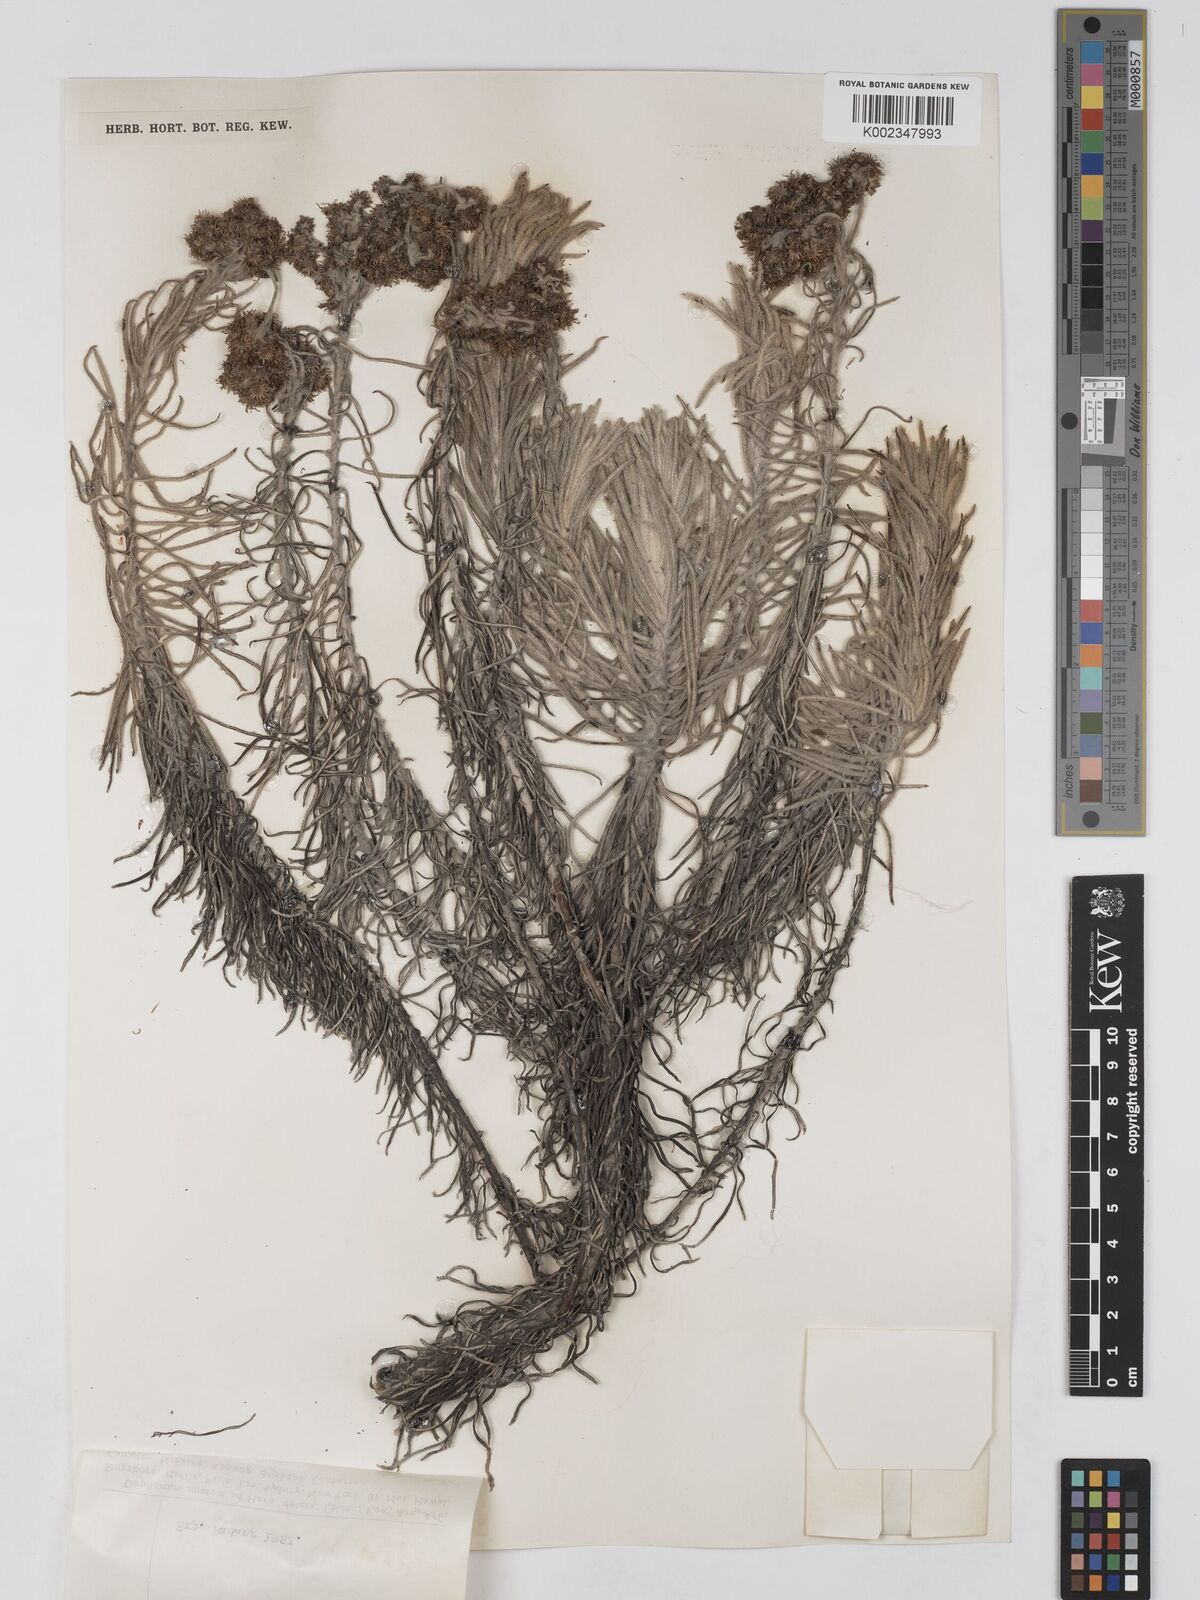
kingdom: Plantae
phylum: Tracheophyta
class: Magnoliopsida
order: Asterales
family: Asteraceae
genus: Anaphalis
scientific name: Anaphalis javanica
